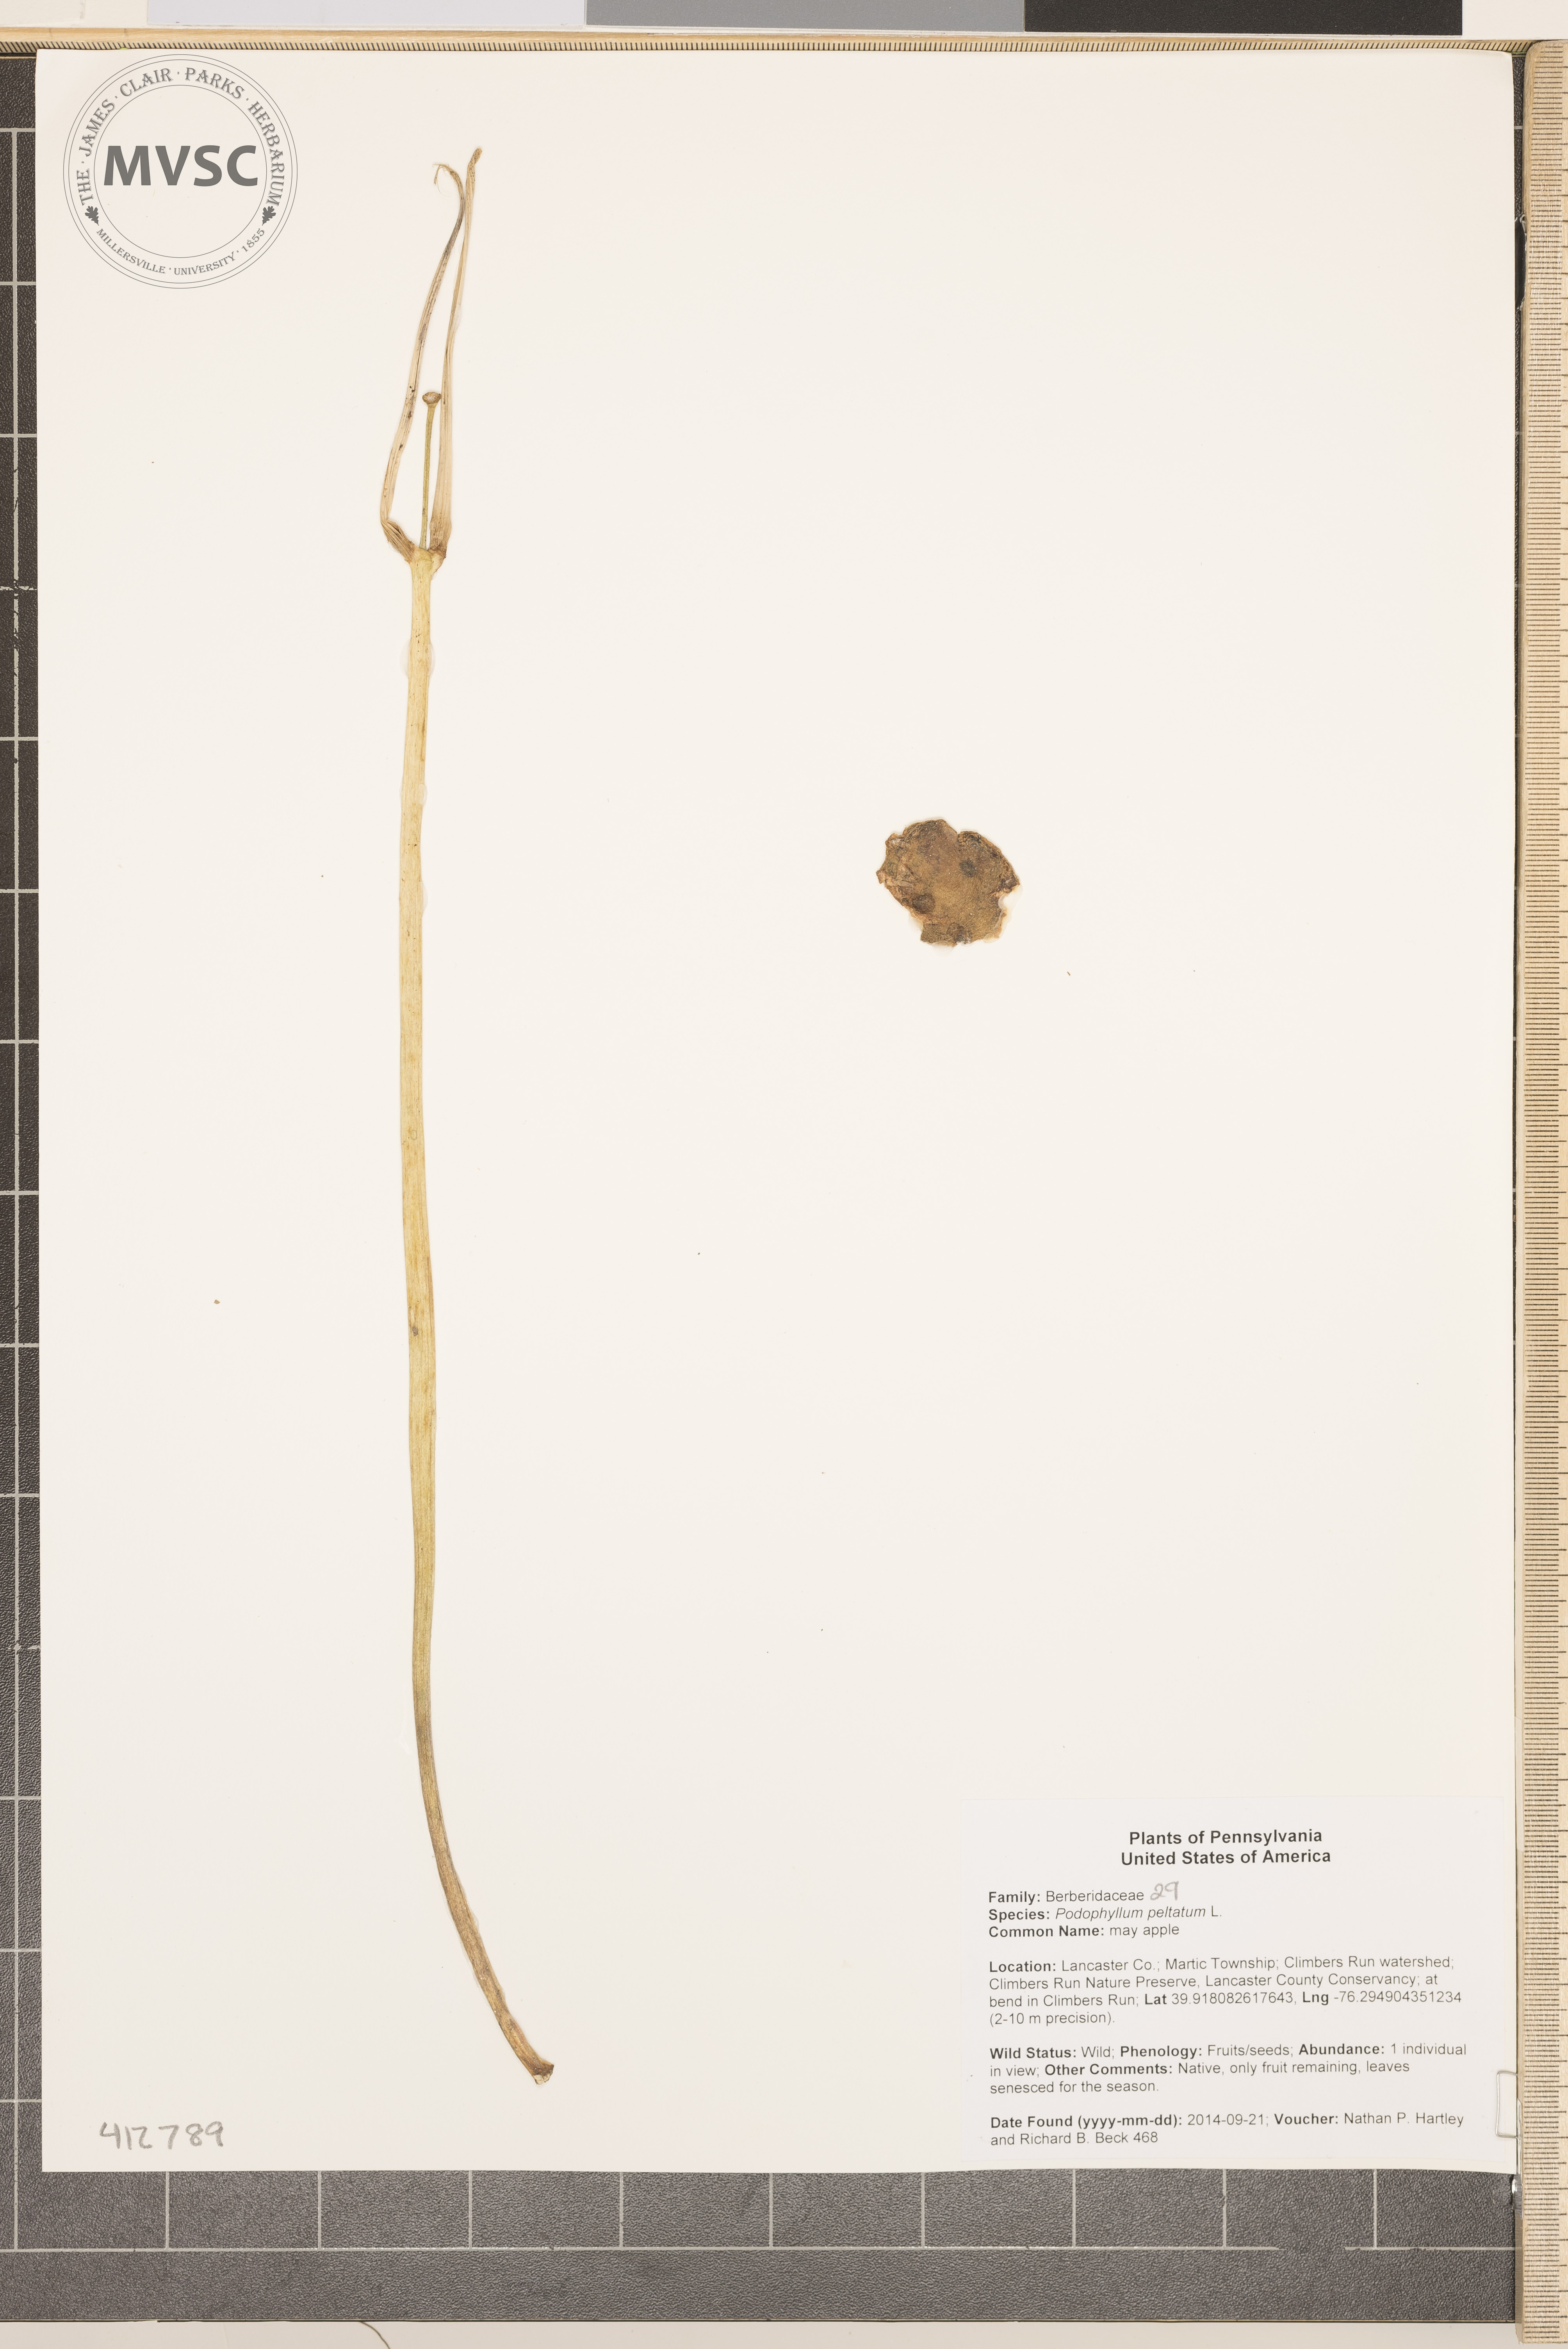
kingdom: Plantae
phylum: Tracheophyta
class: Magnoliopsida
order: Ranunculales
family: Berberidaceae
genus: Podophyllum
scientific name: Podophyllum peltatum
